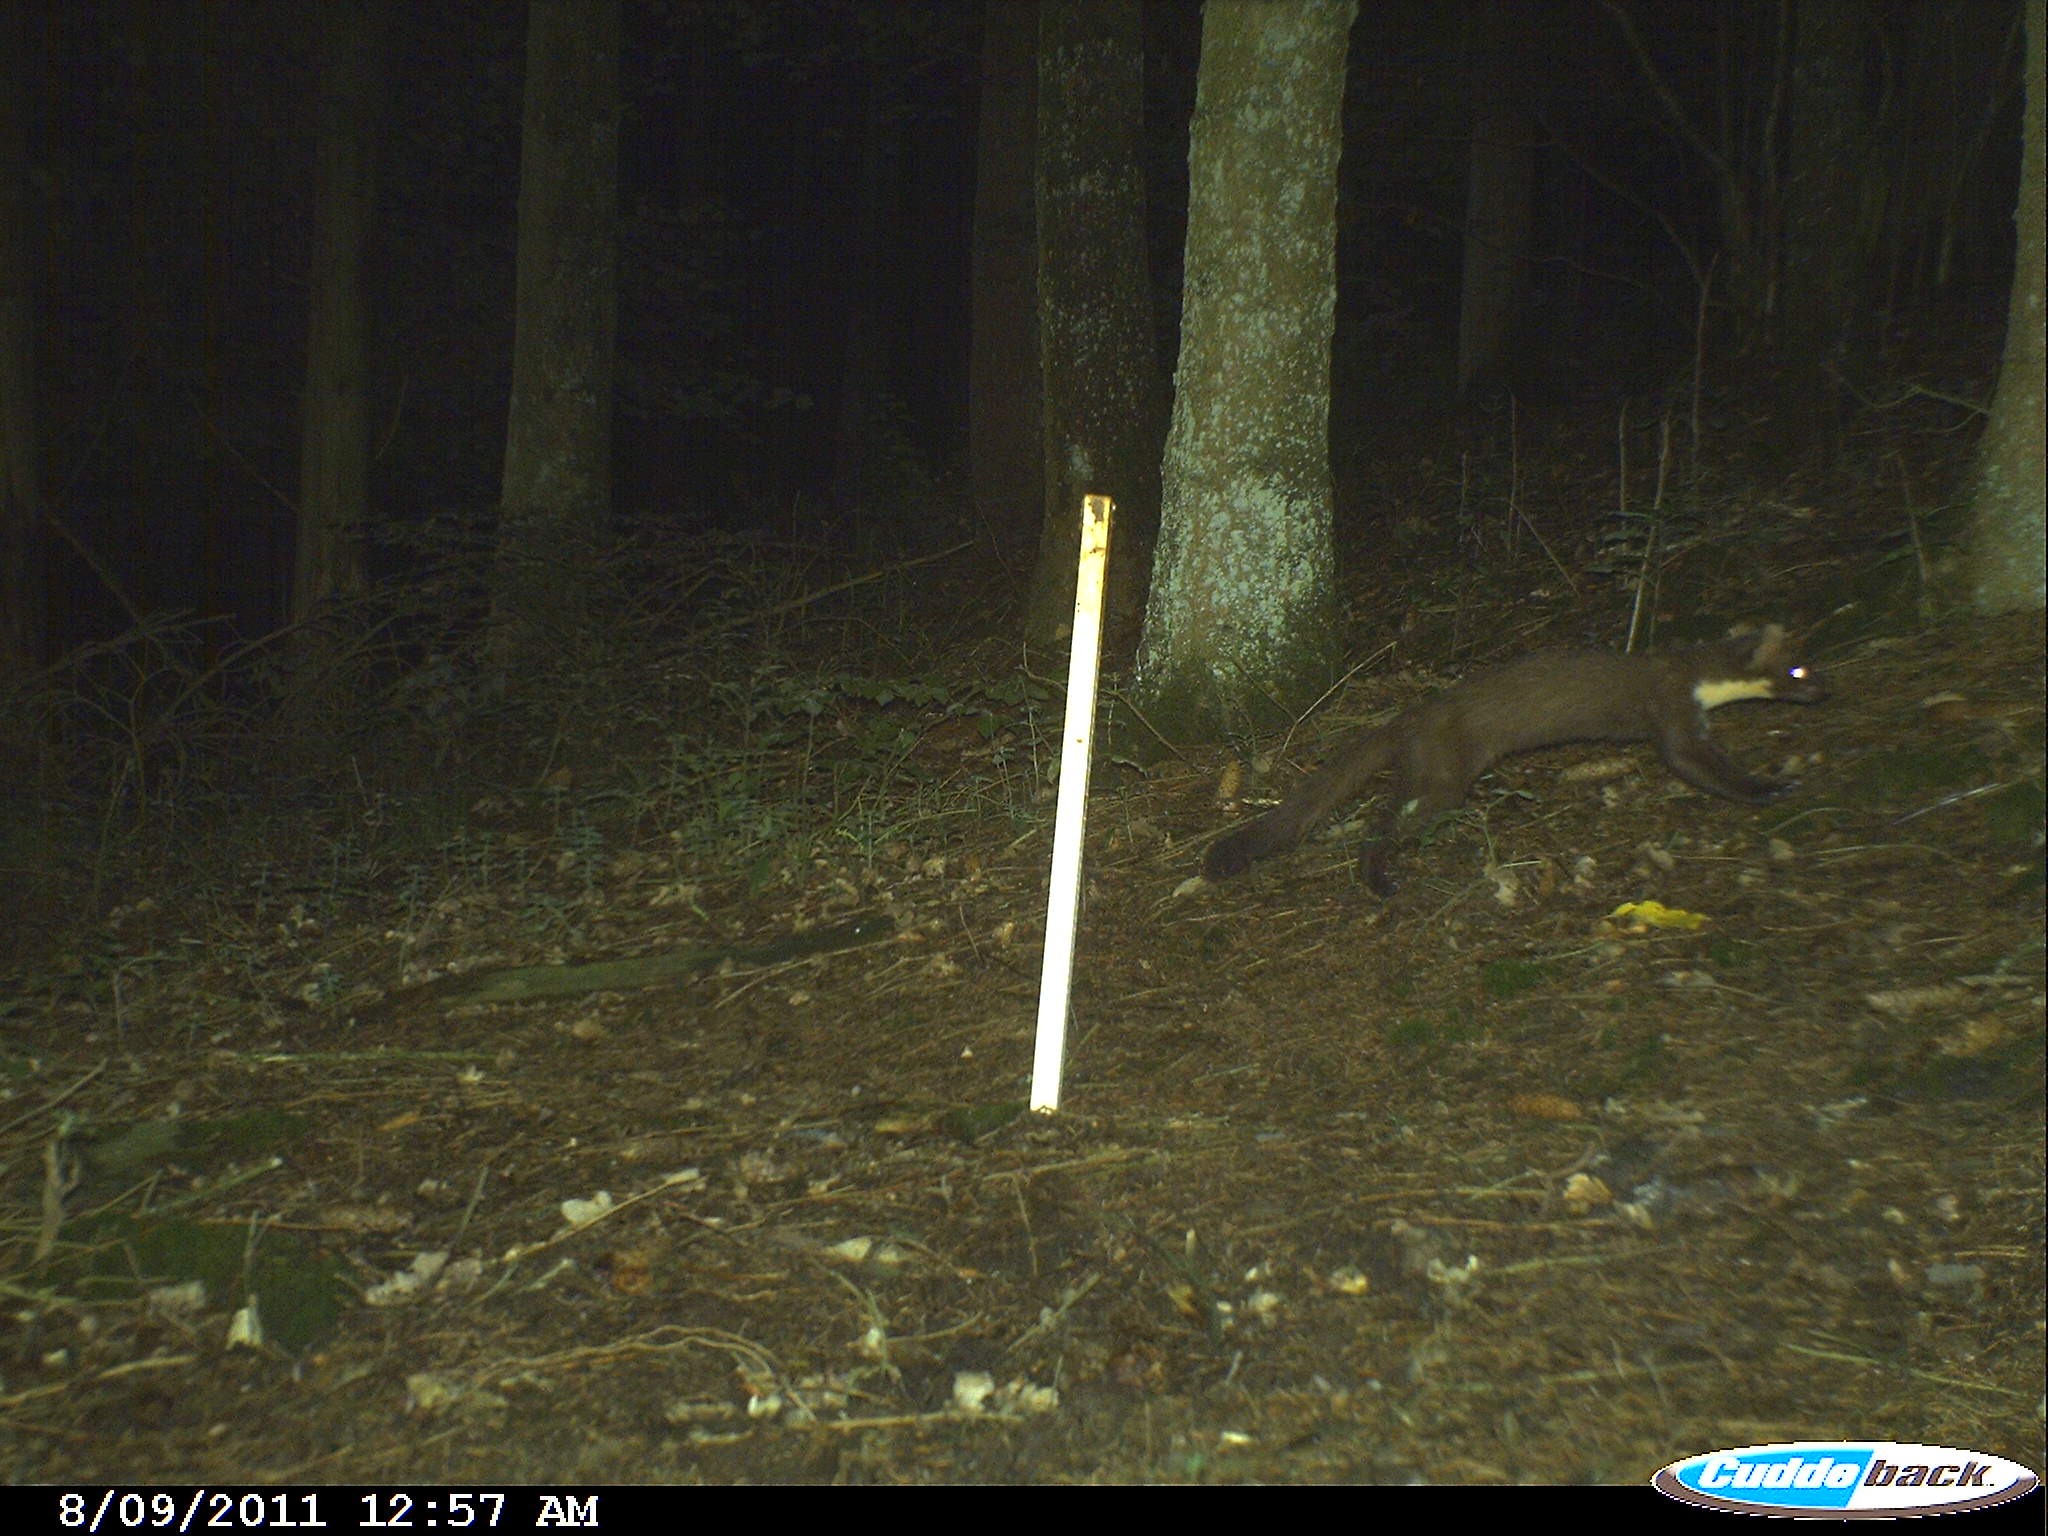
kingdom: Animalia
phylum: Chordata
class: Mammalia
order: Carnivora
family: Mustelidae
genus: Martes
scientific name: Martes martes
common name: European pine marten
